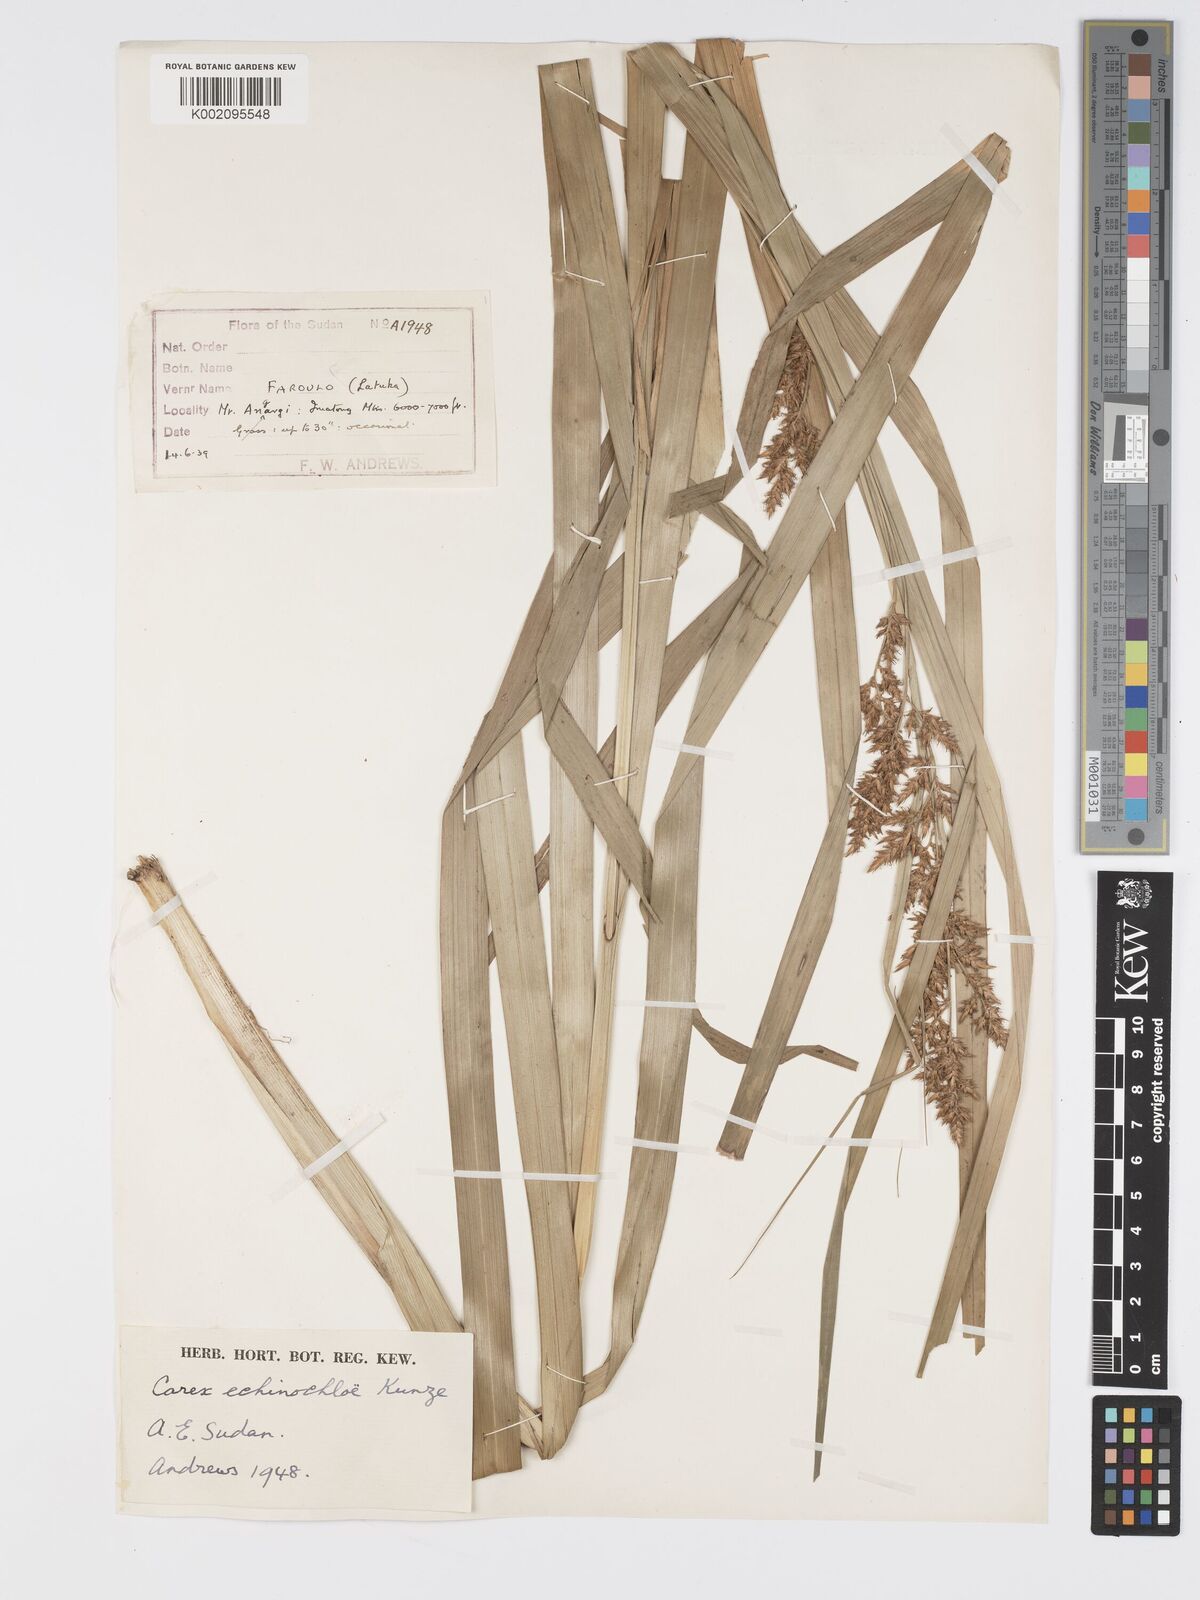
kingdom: Plantae
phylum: Tracheophyta
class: Liliopsida
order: Poales
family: Cyperaceae
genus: Carex
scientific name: Carex echinochloe
